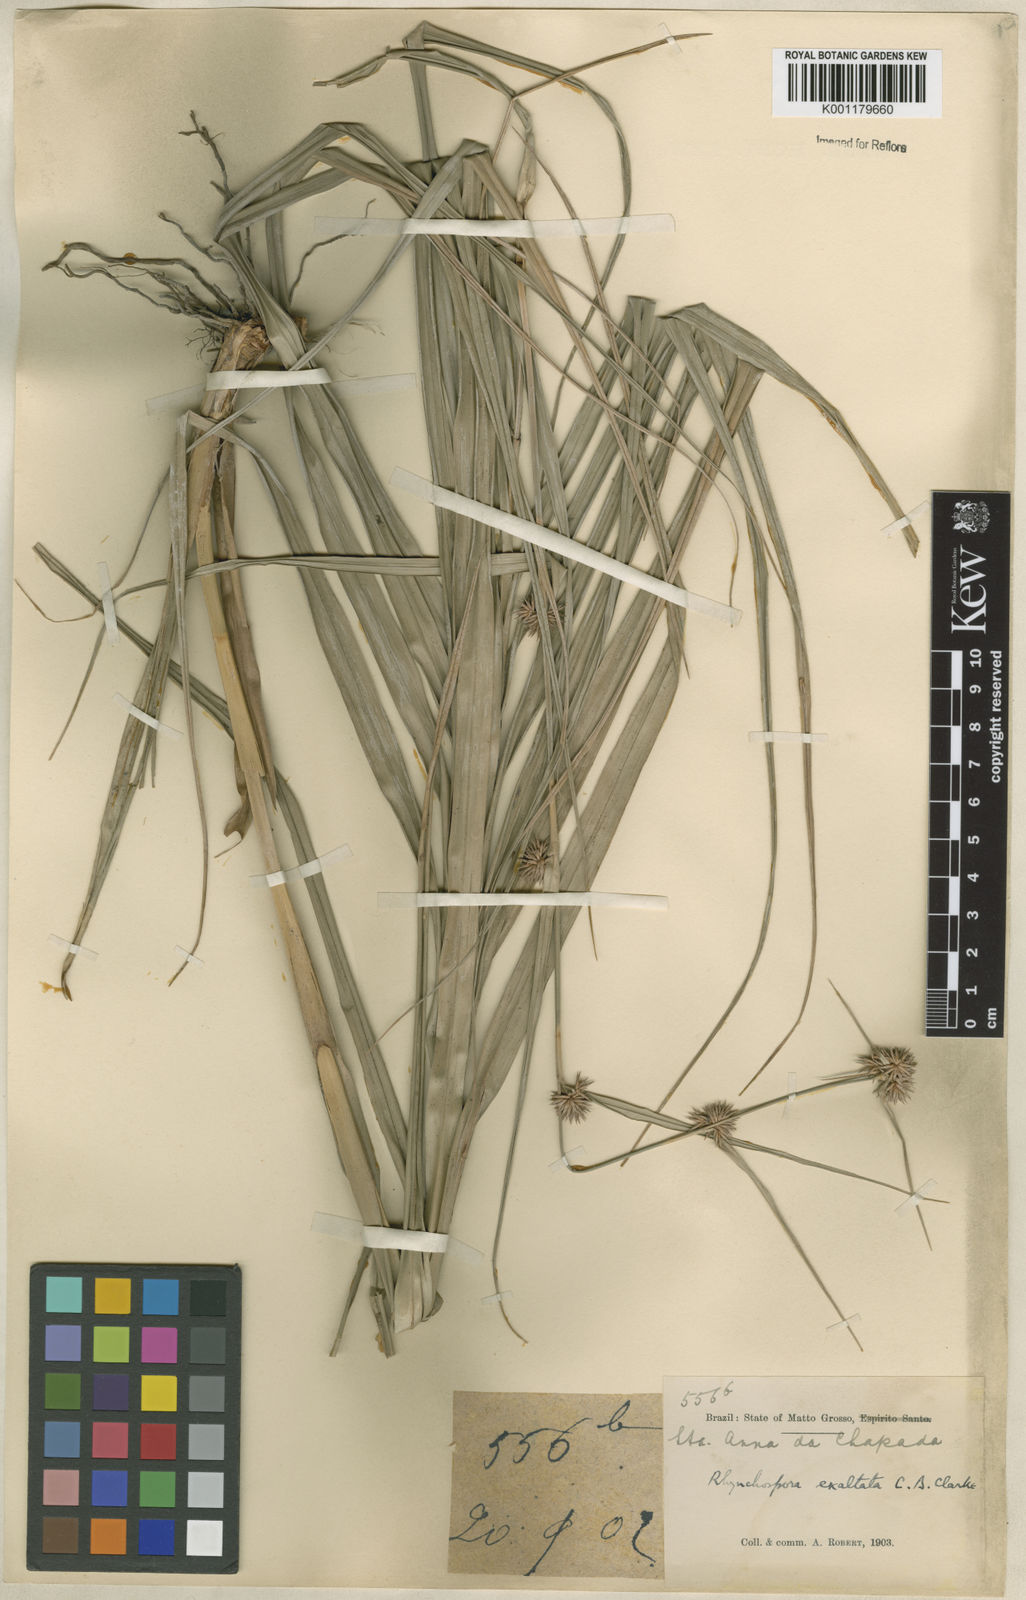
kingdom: Plantae
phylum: Tracheophyta
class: Liliopsida
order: Poales
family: Cyperaceae
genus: Rhynchospora
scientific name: Rhynchospora exaltata
